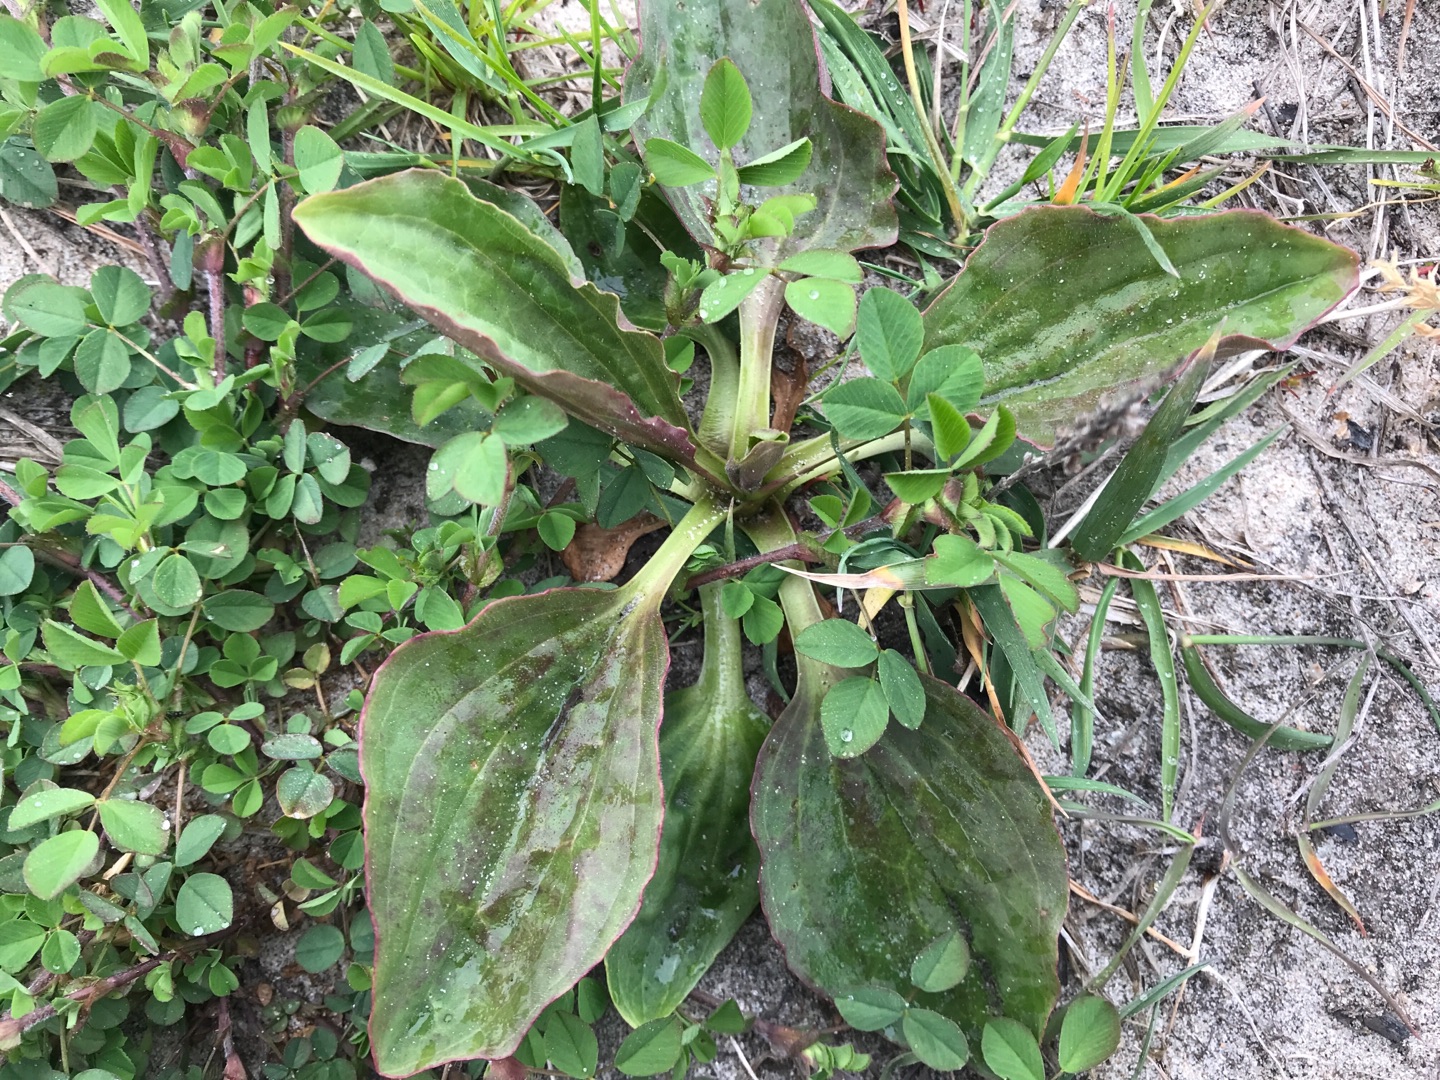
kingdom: Plantae
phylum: Tracheophyta
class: Magnoliopsida
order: Lamiales
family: Plantaginaceae
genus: Plantago
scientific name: Plantago uliginosa
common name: Ager-vejbred
